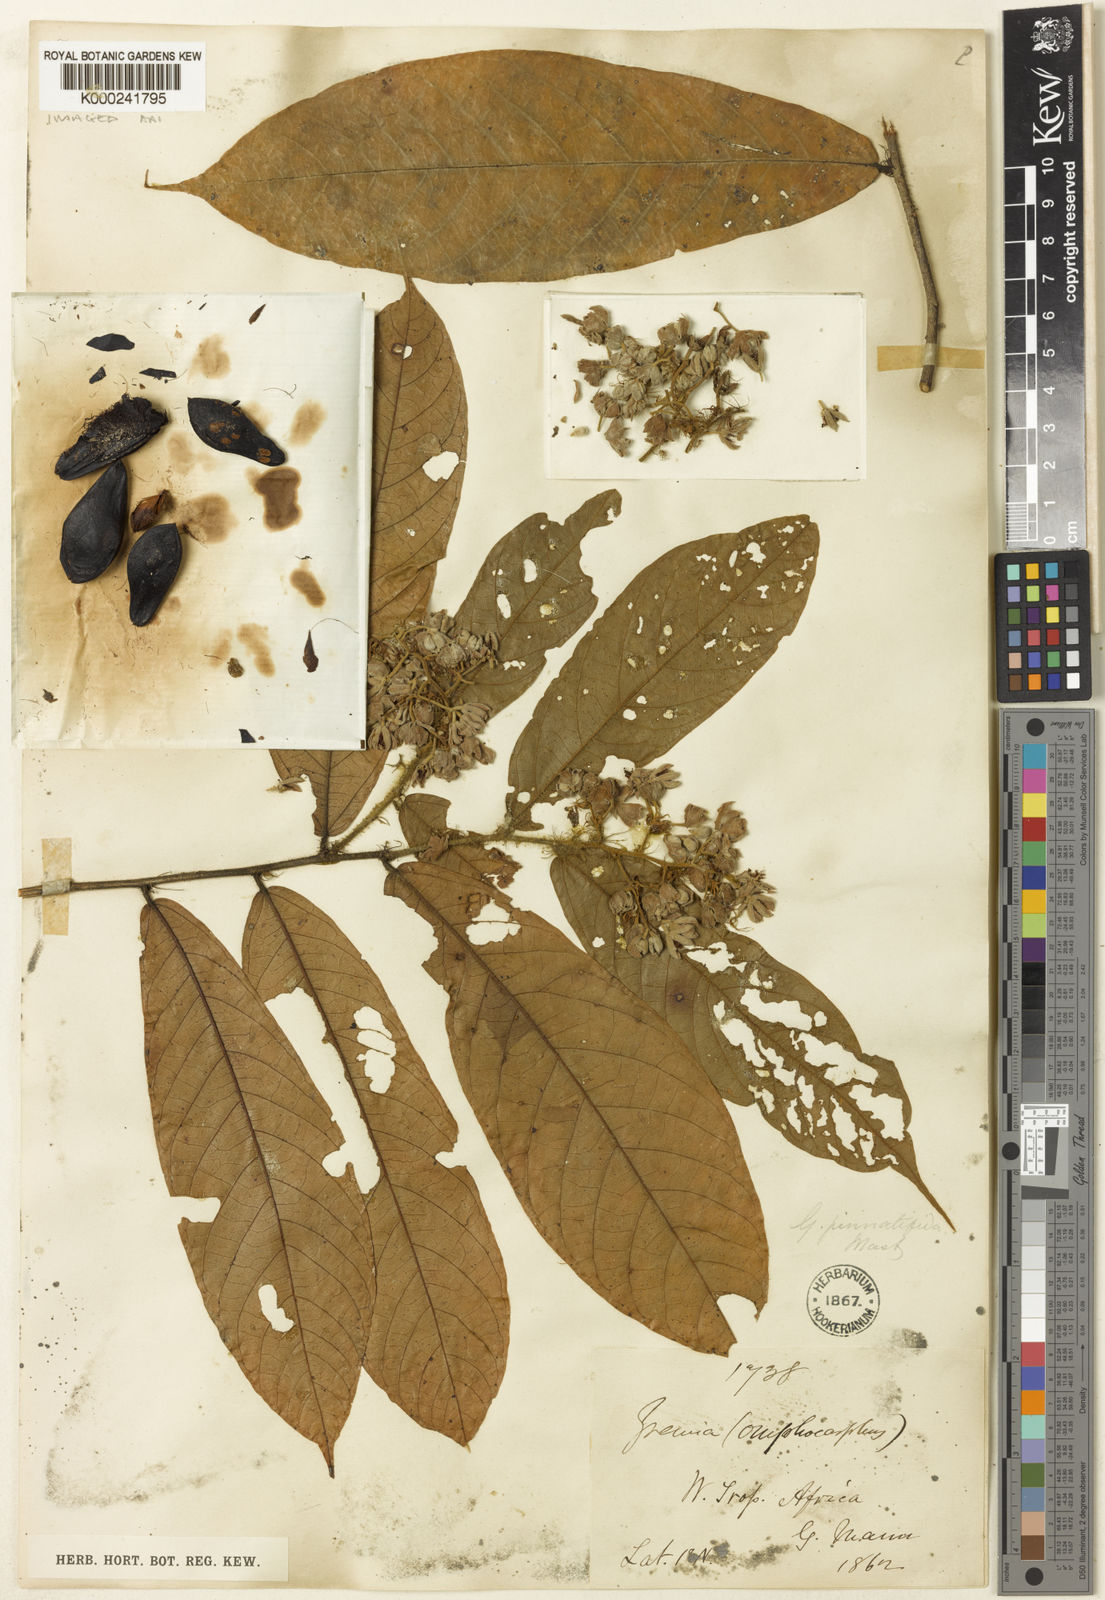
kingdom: Plantae
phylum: Tracheophyta
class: Magnoliopsida
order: Malvales
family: Malvaceae
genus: Microcos
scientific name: Microcos pinnatifida
